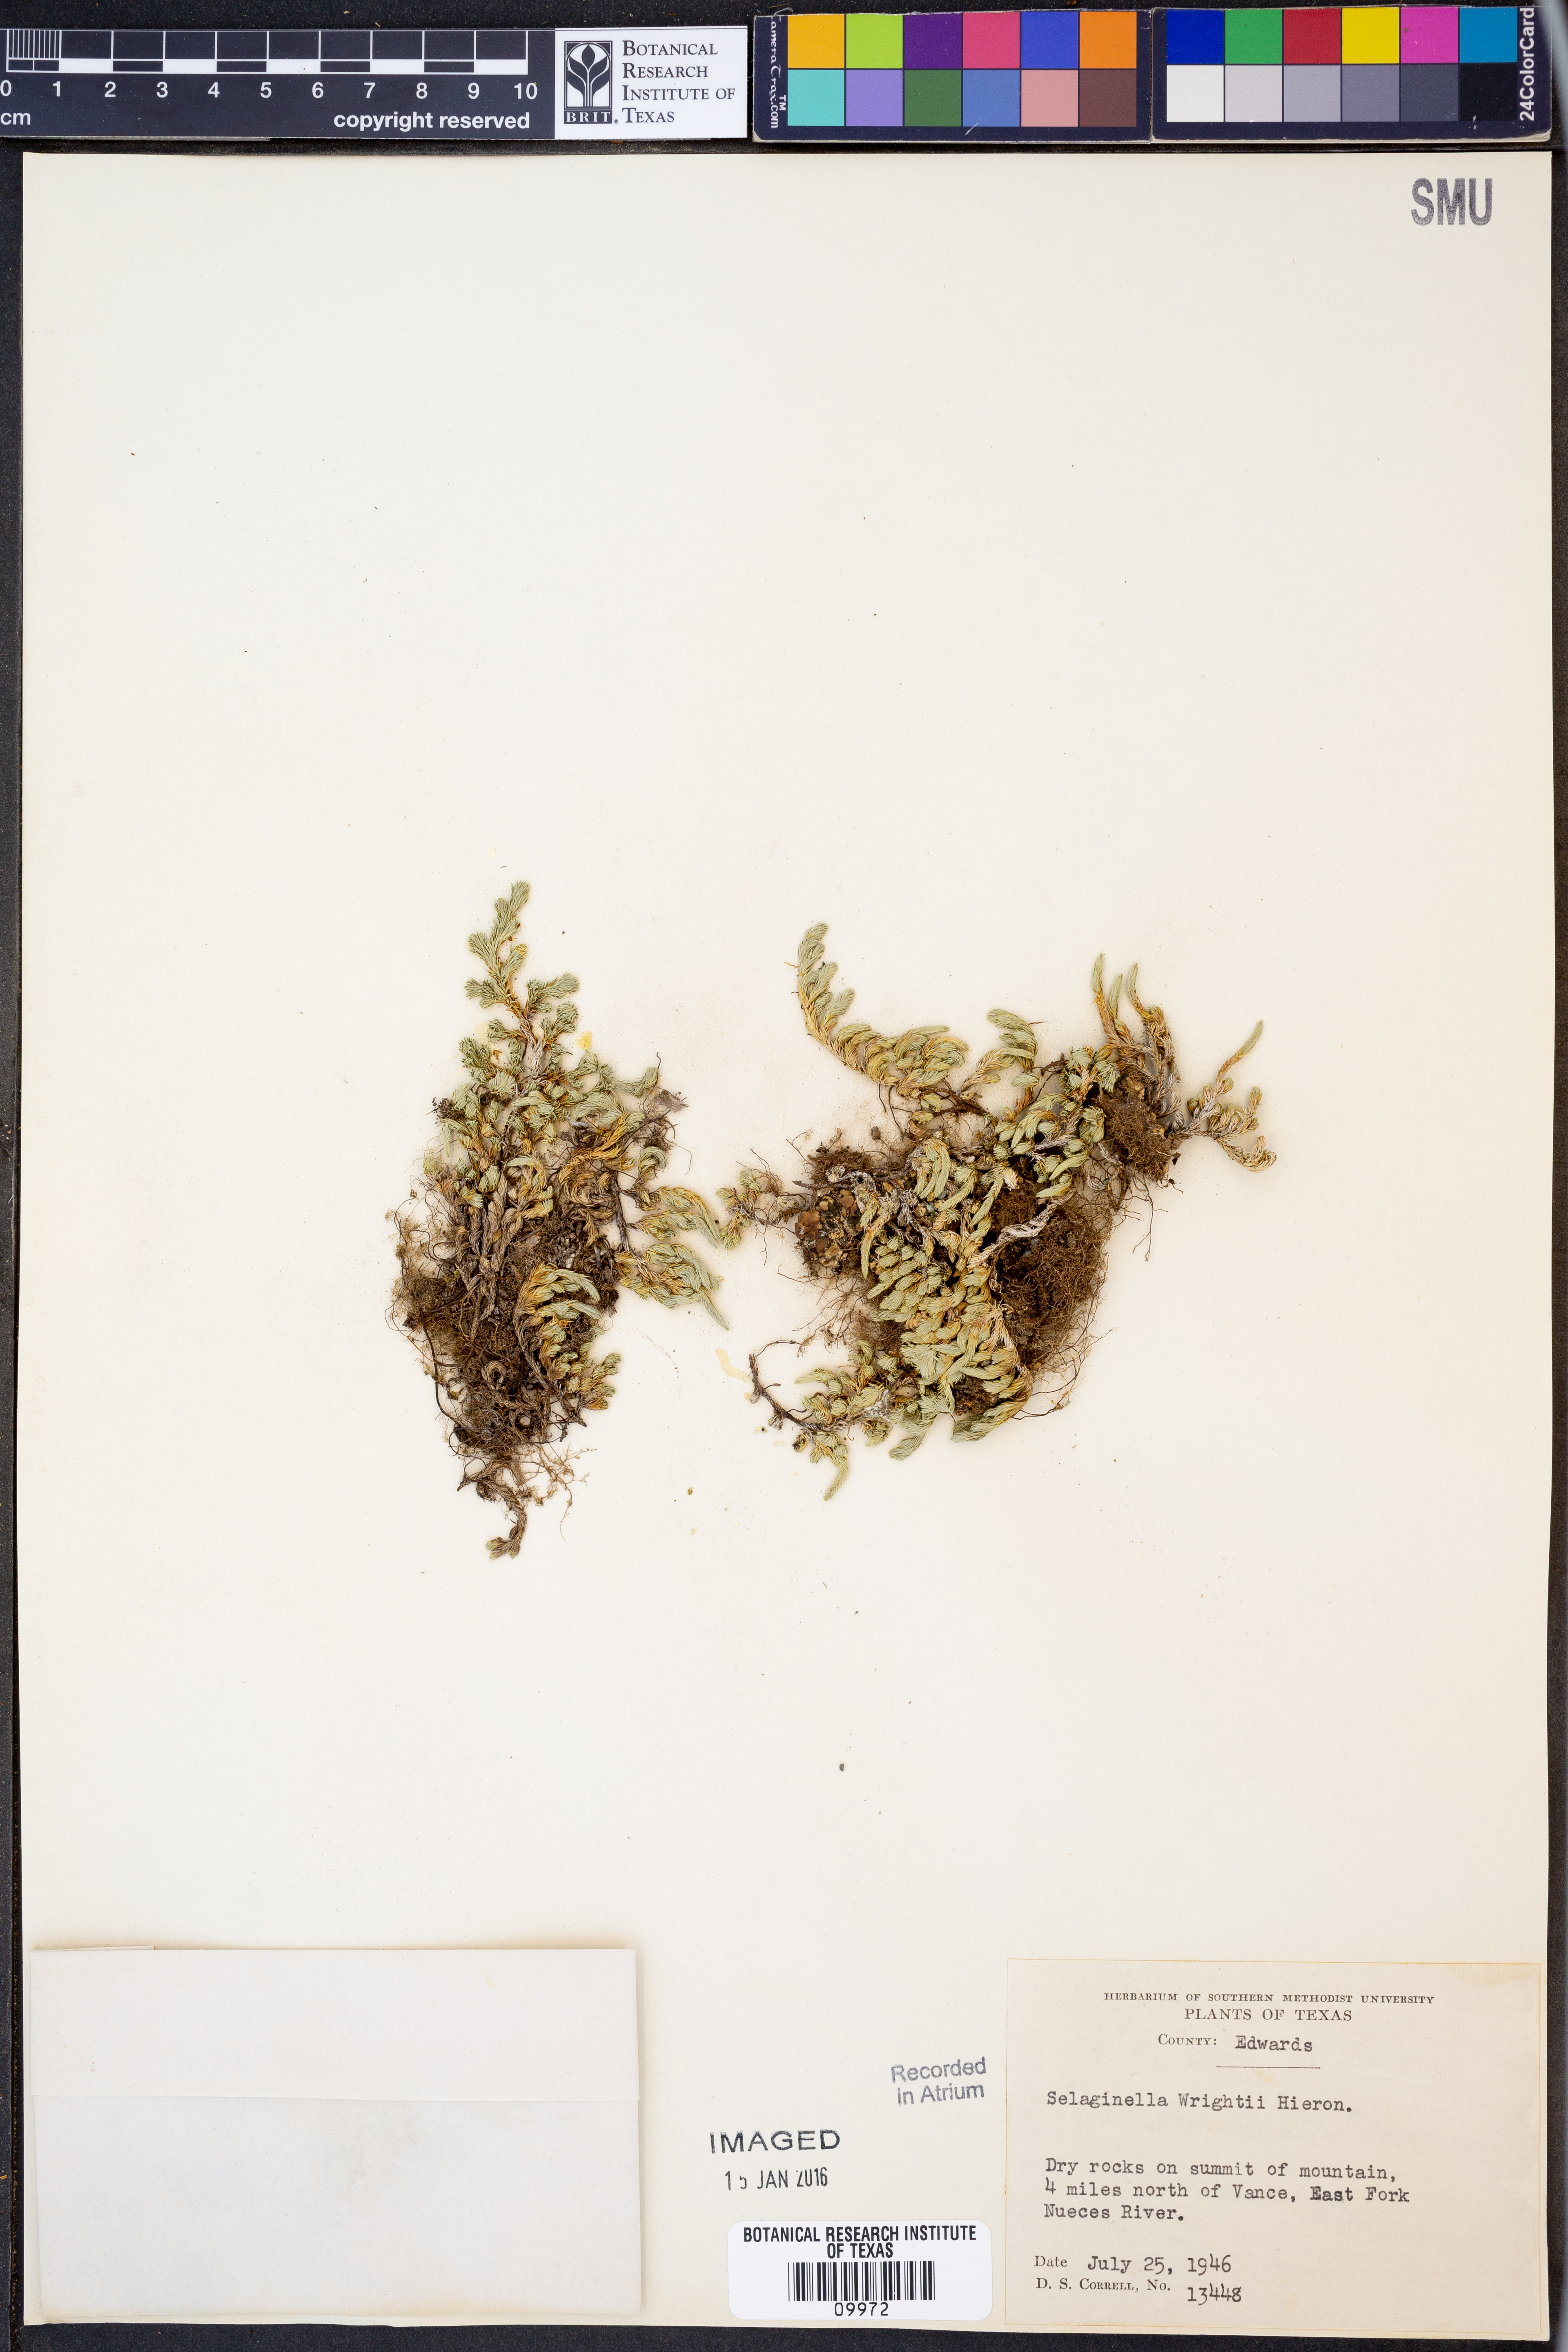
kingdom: Plantae
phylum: Tracheophyta
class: Lycopodiopsida
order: Selaginellales
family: Selaginellaceae
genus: Selaginella
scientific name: Selaginella wrightii
